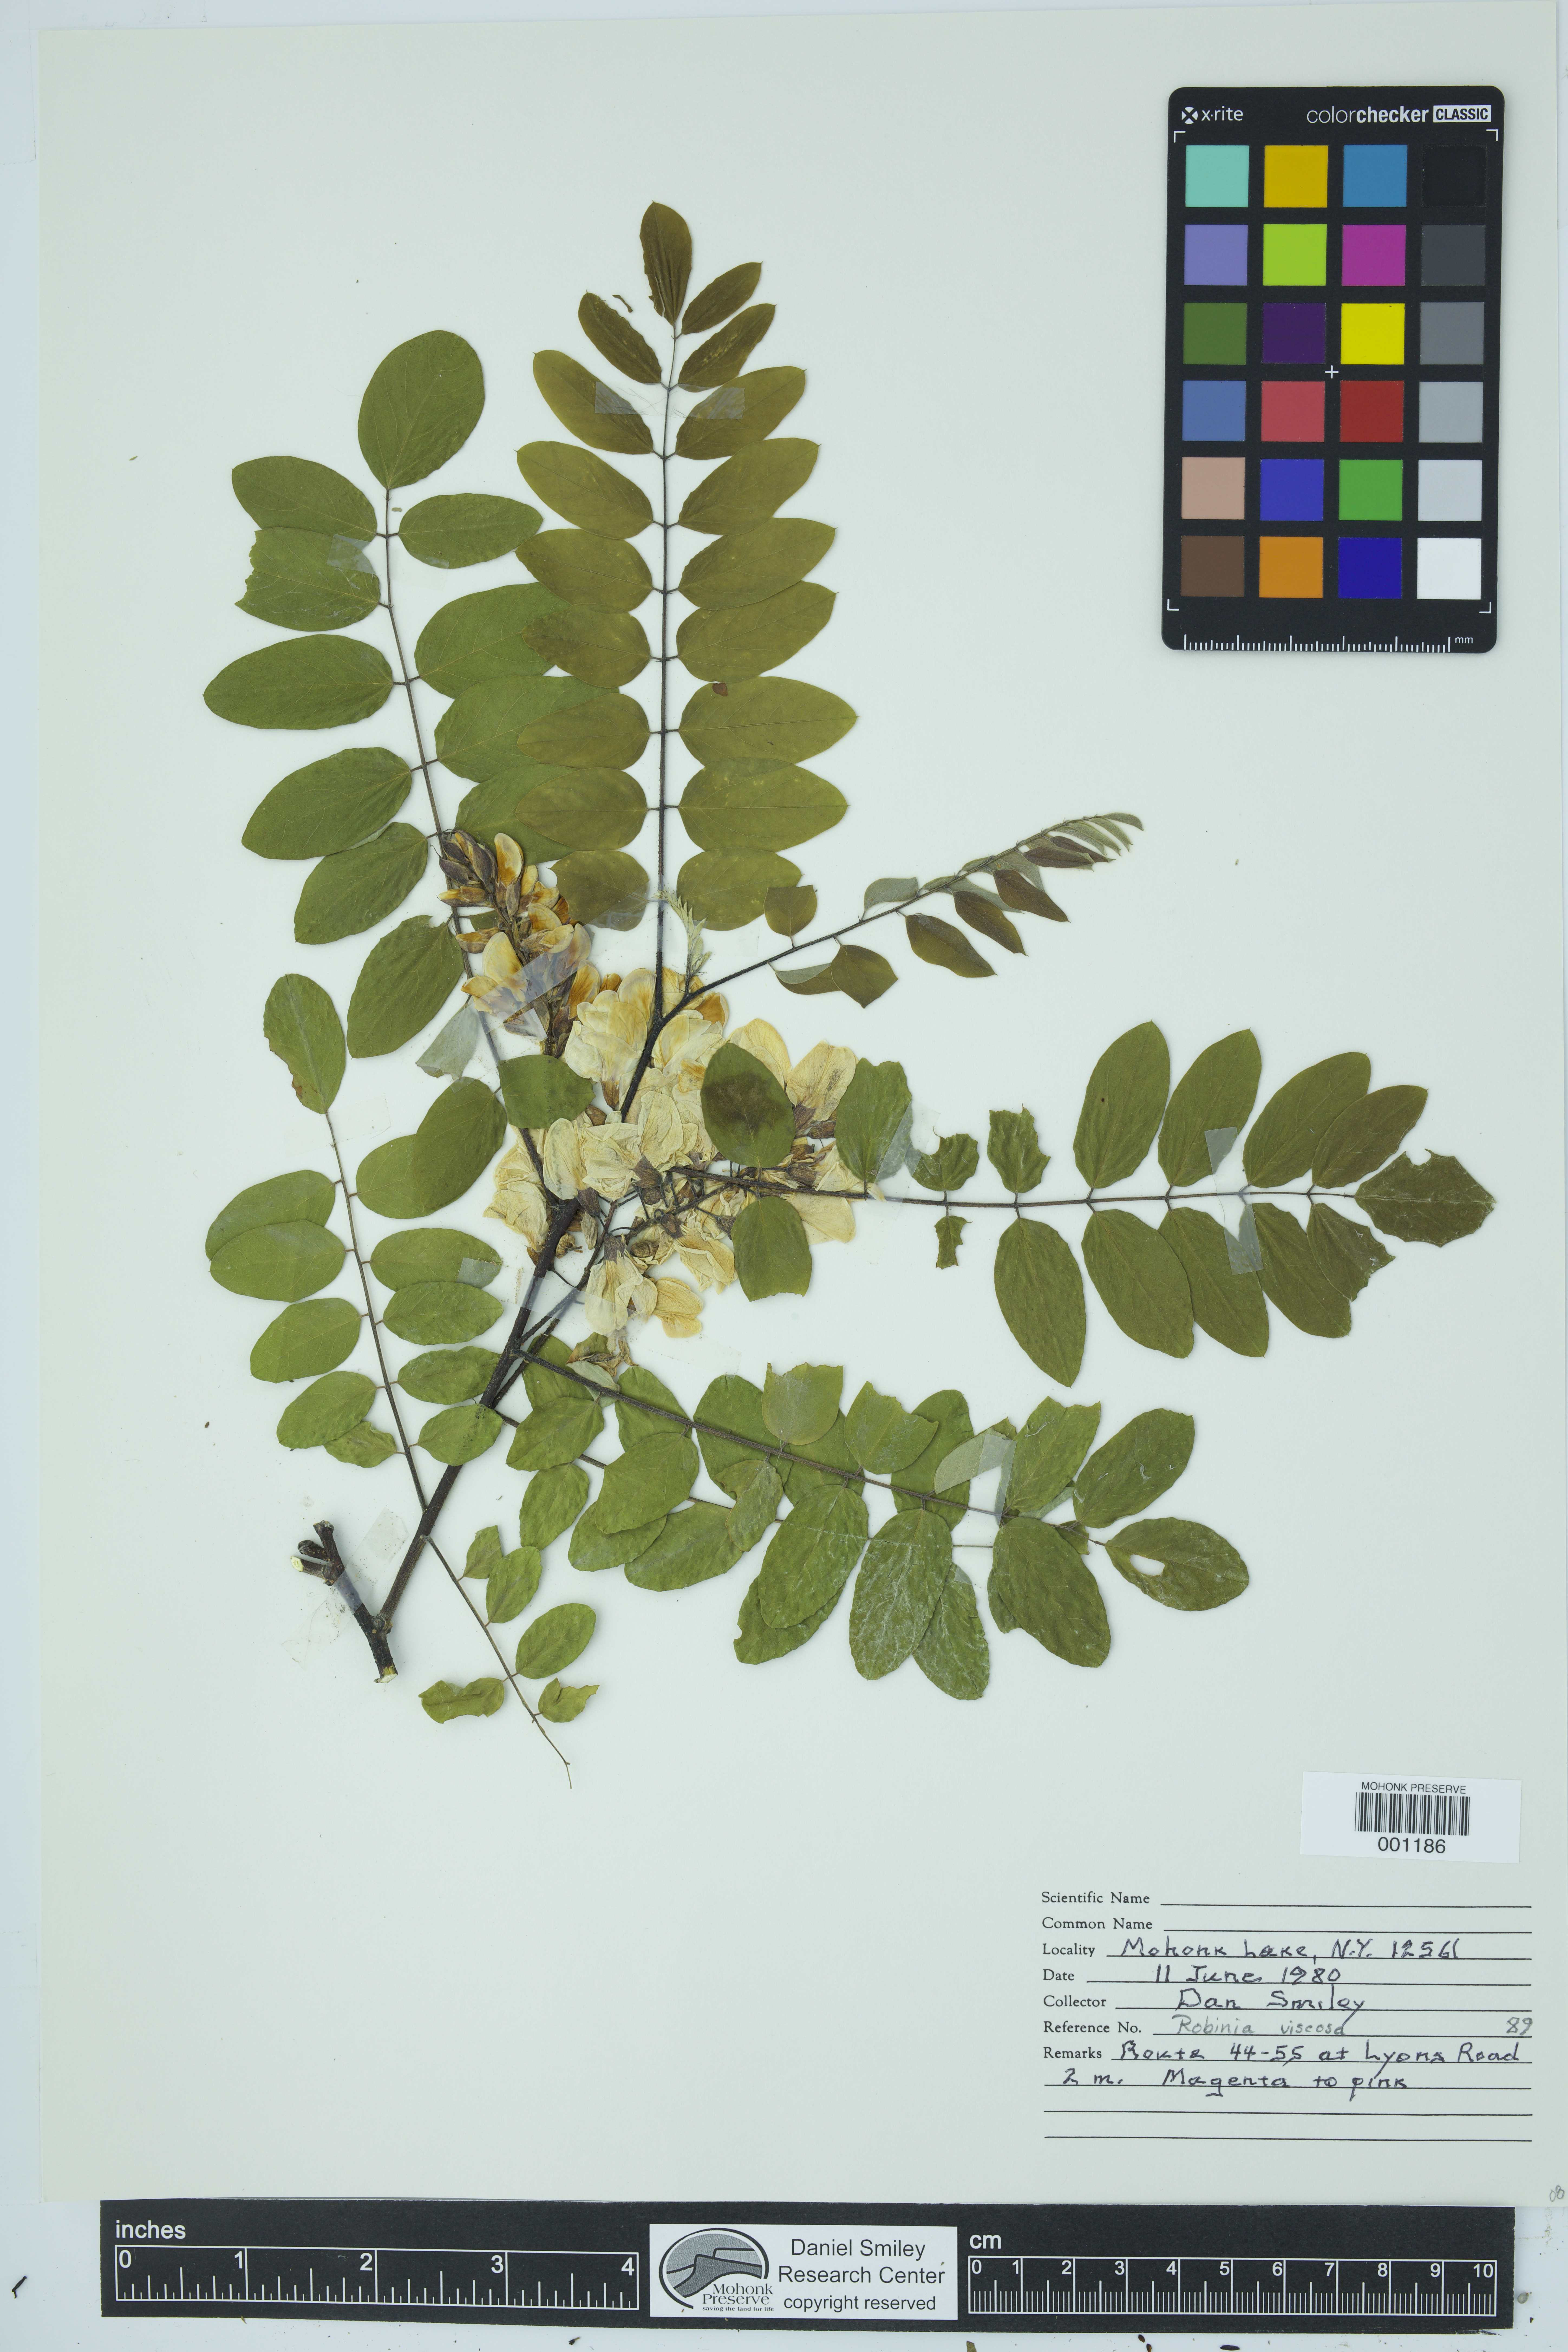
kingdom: Plantae
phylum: Tracheophyta
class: Magnoliopsida
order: Fabales
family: Fabaceae
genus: Robinia
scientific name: Robinia viscosa
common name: Clammy locust
